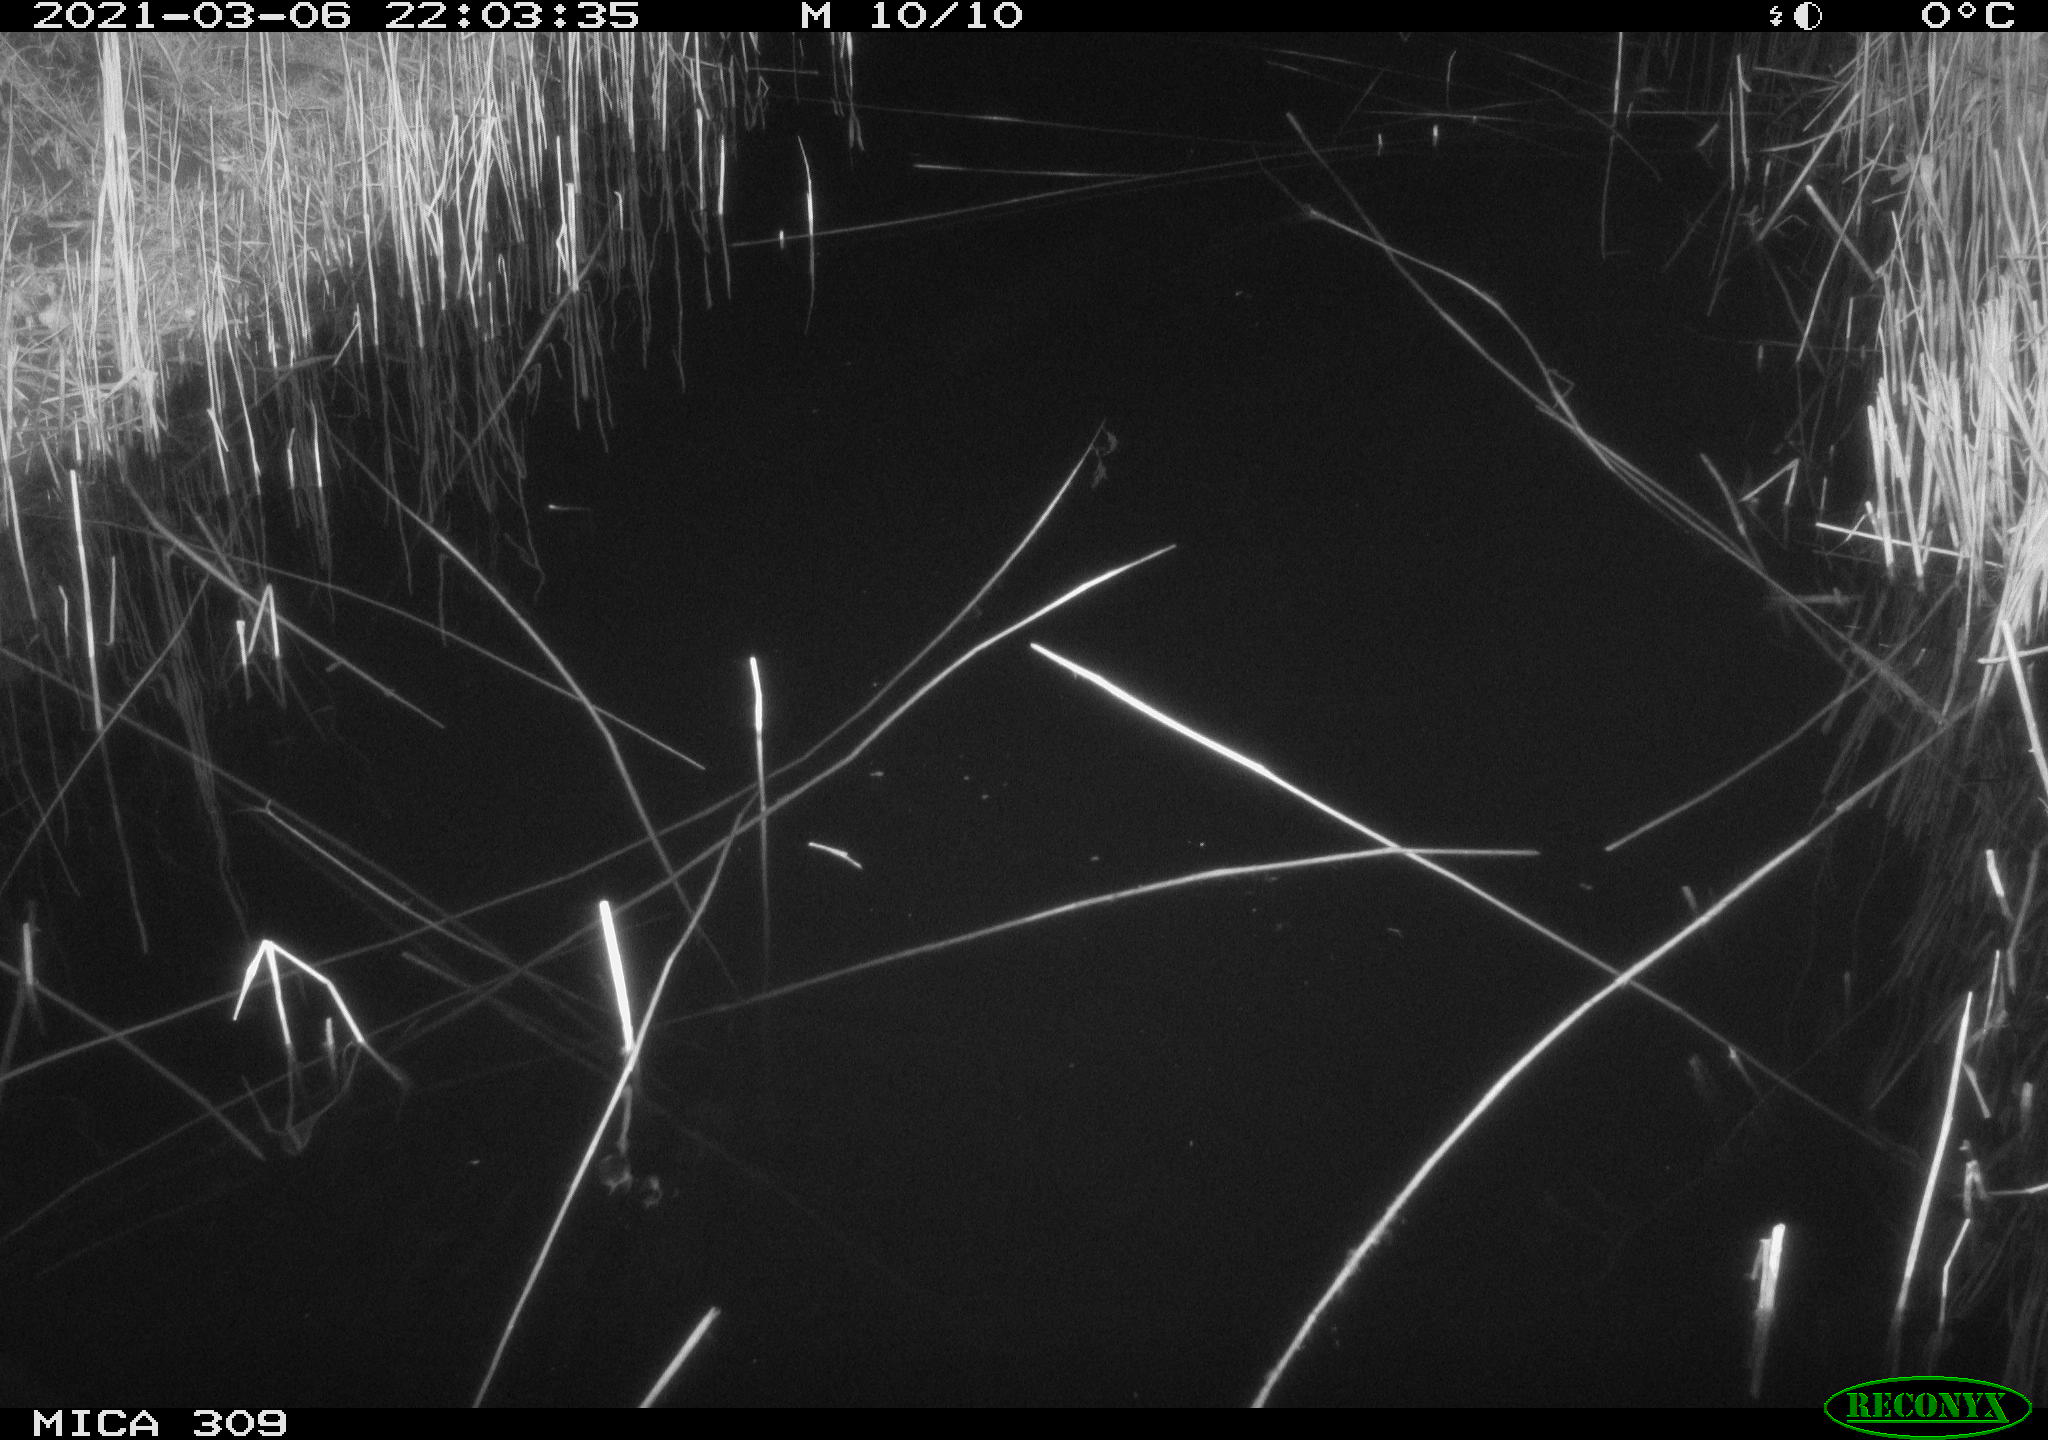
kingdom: Animalia
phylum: Chordata
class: Aves
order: Anseriformes
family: Anatidae
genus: Anas
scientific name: Anas platyrhynchos
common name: Mallard
